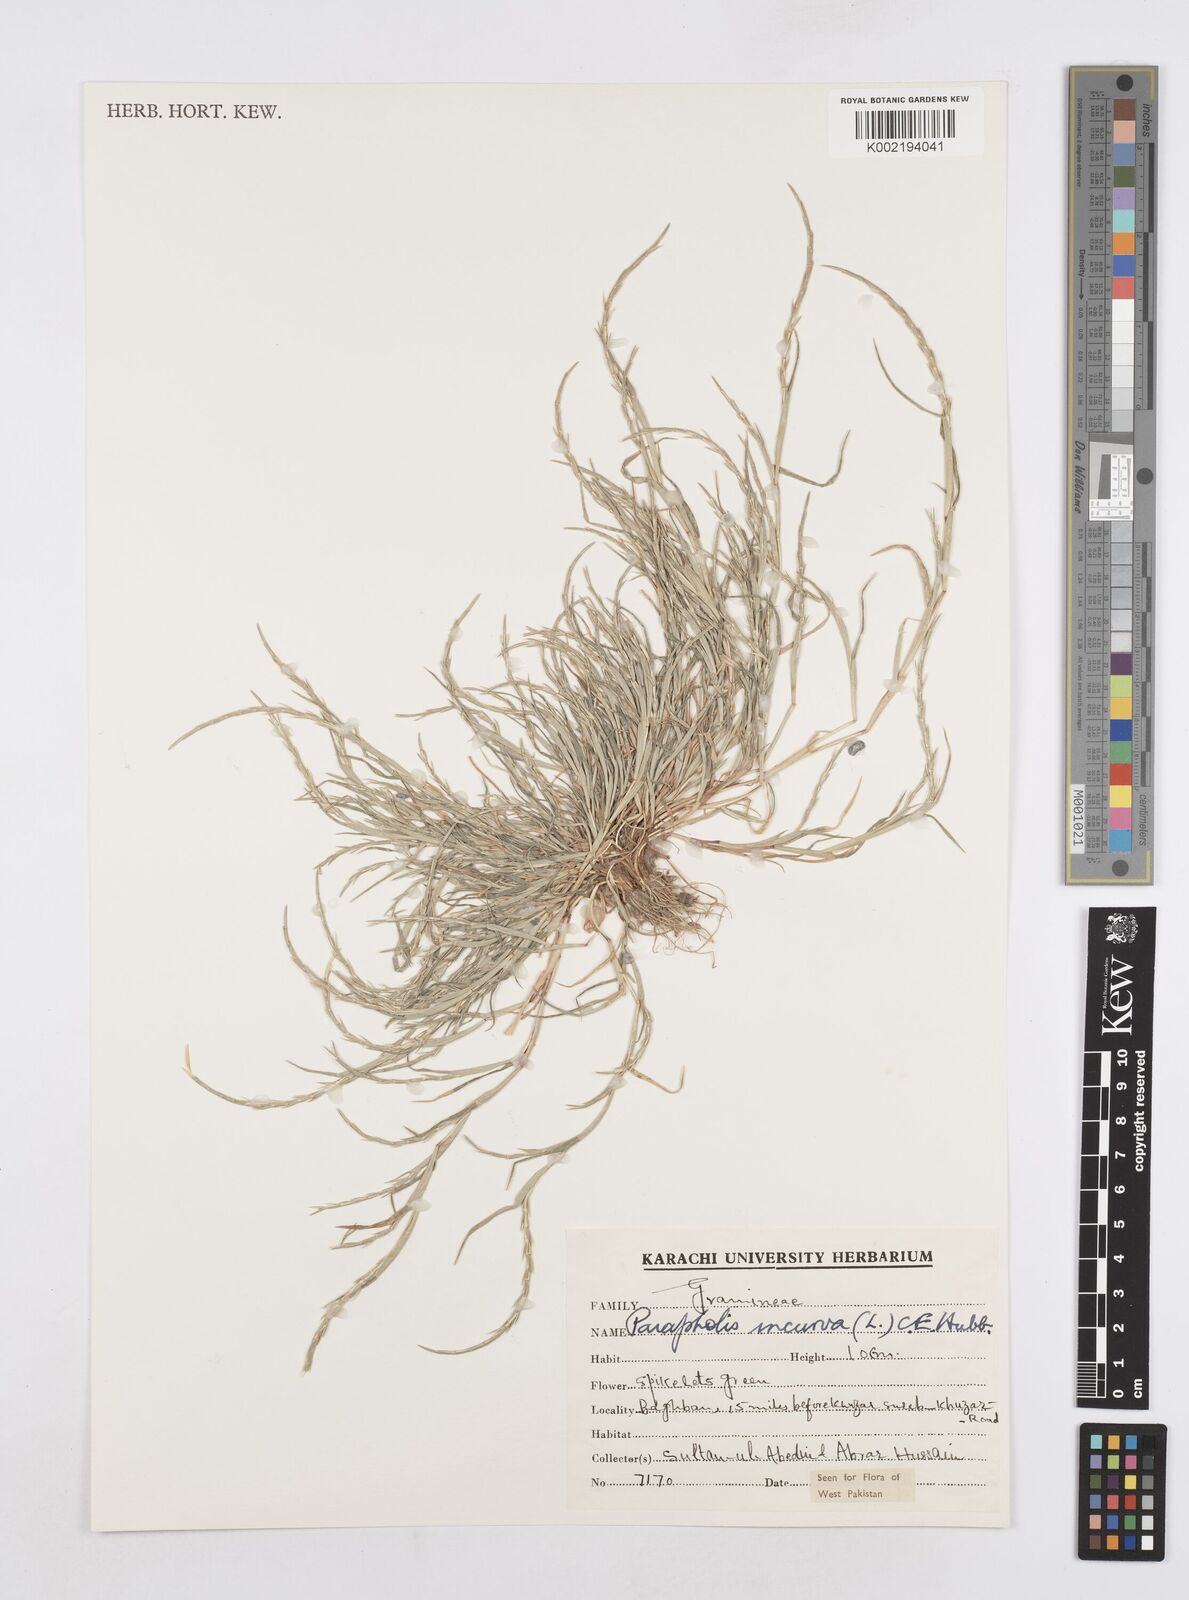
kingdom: Plantae
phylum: Tracheophyta
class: Liliopsida
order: Poales
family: Poaceae
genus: Parapholis
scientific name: Parapholis incurva
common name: Curved sicklegrass
